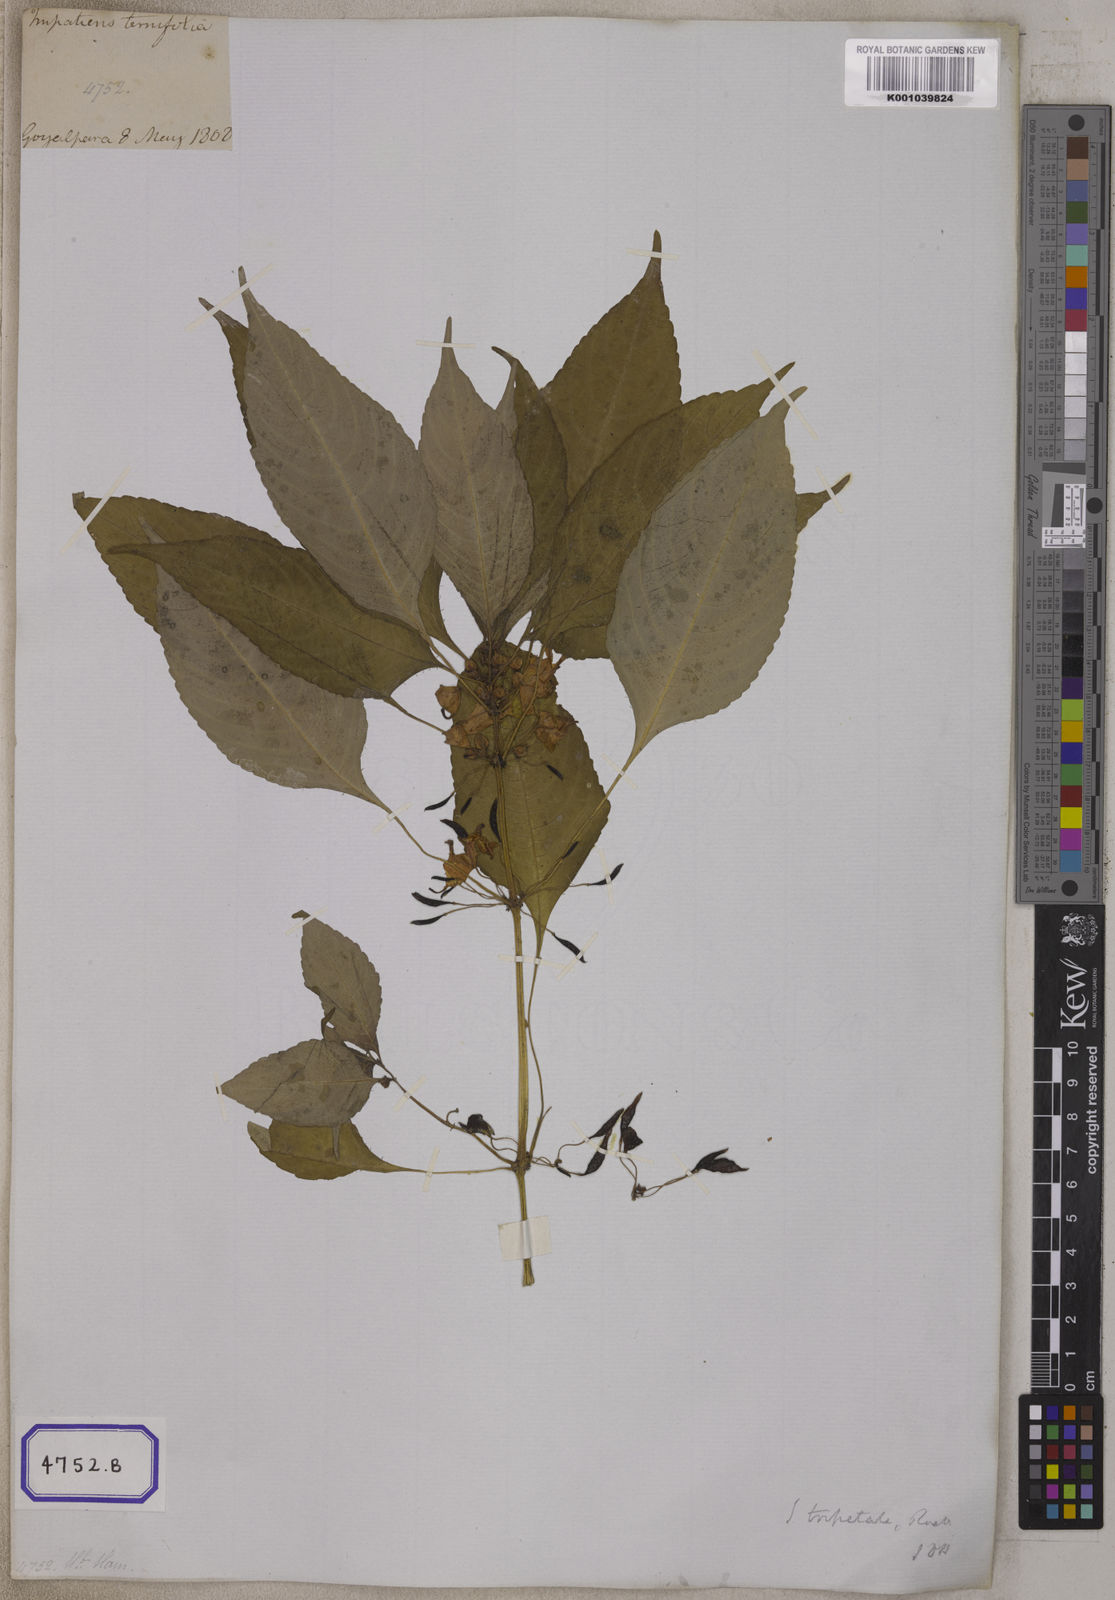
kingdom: Plantae
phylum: Tracheophyta
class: Magnoliopsida
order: Ericales
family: Balsaminaceae
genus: Impatiens
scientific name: Impatiens
